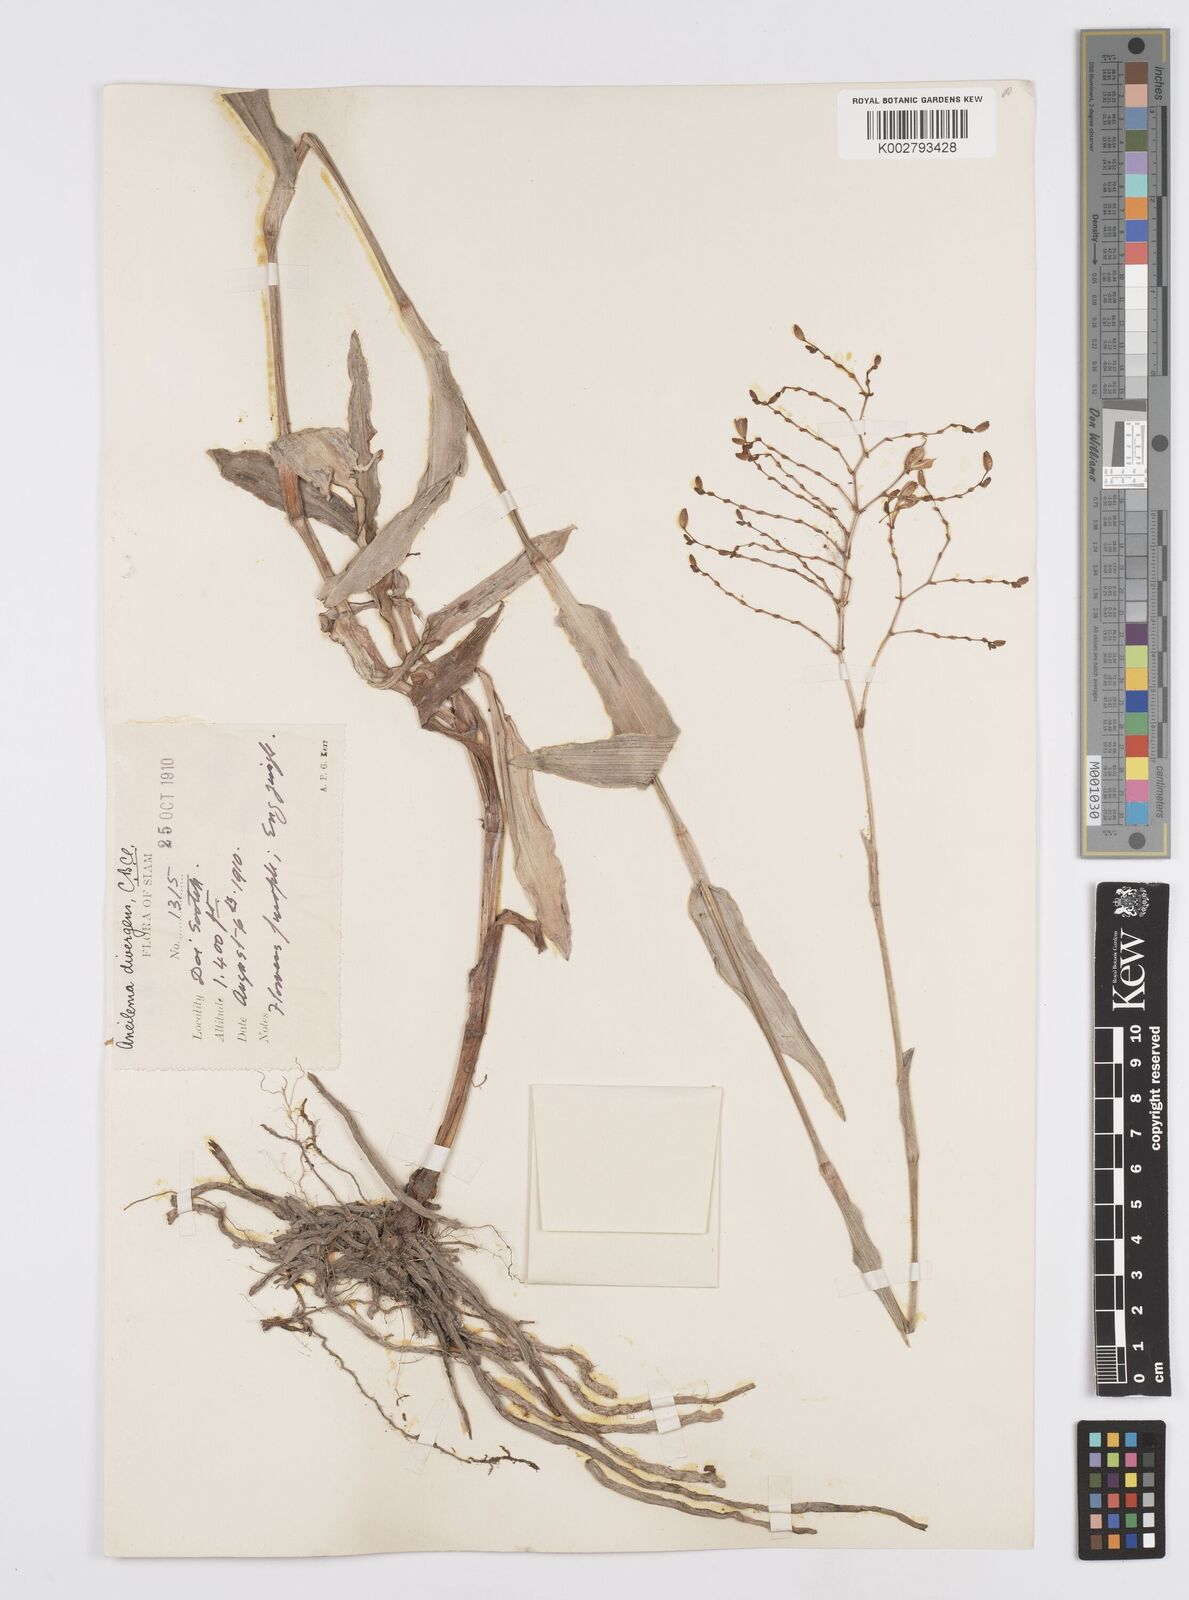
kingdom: Plantae
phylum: Tracheophyta
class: Liliopsida
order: Commelinales
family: Commelinaceae
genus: Murdannia
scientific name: Murdannia divergens
